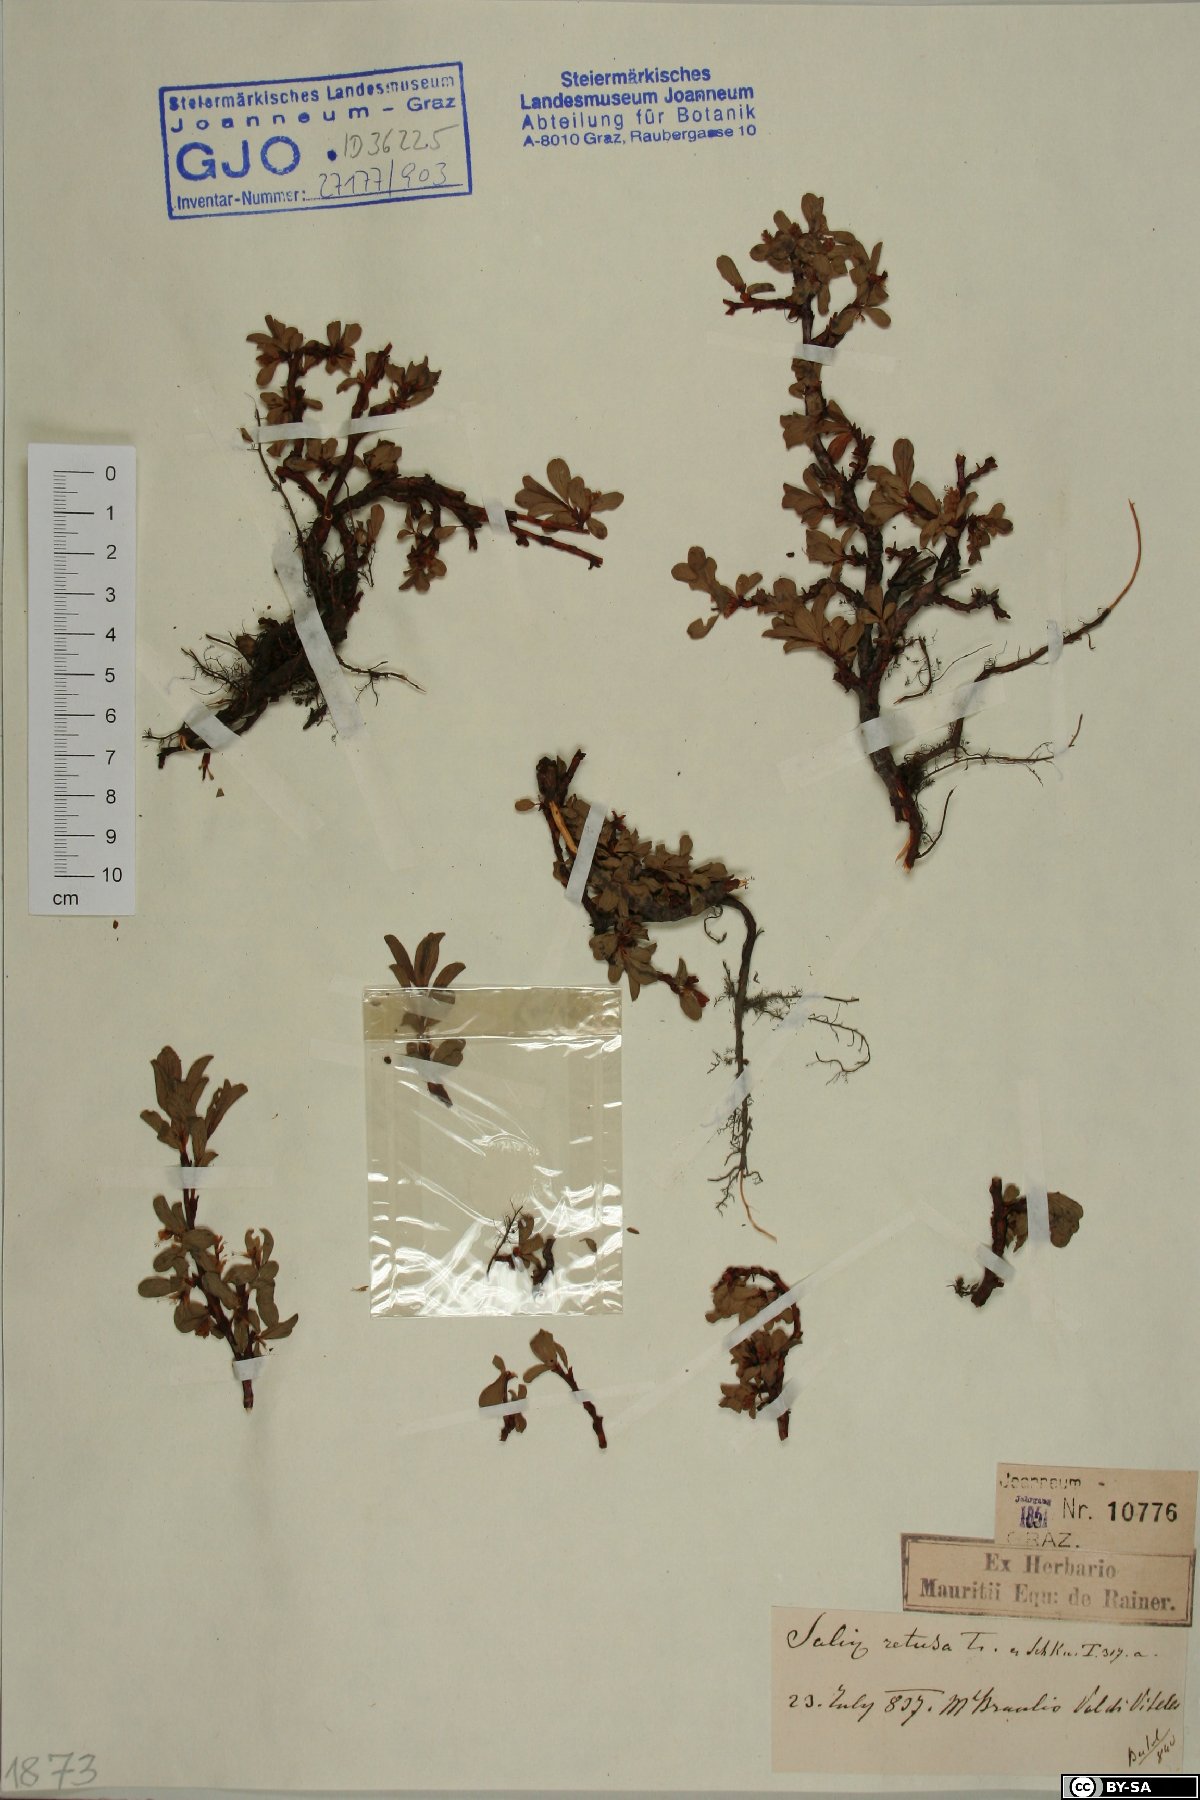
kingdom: Plantae
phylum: Tracheophyta
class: Magnoliopsida
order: Malpighiales
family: Salicaceae
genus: Salix
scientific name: Salix retusa
